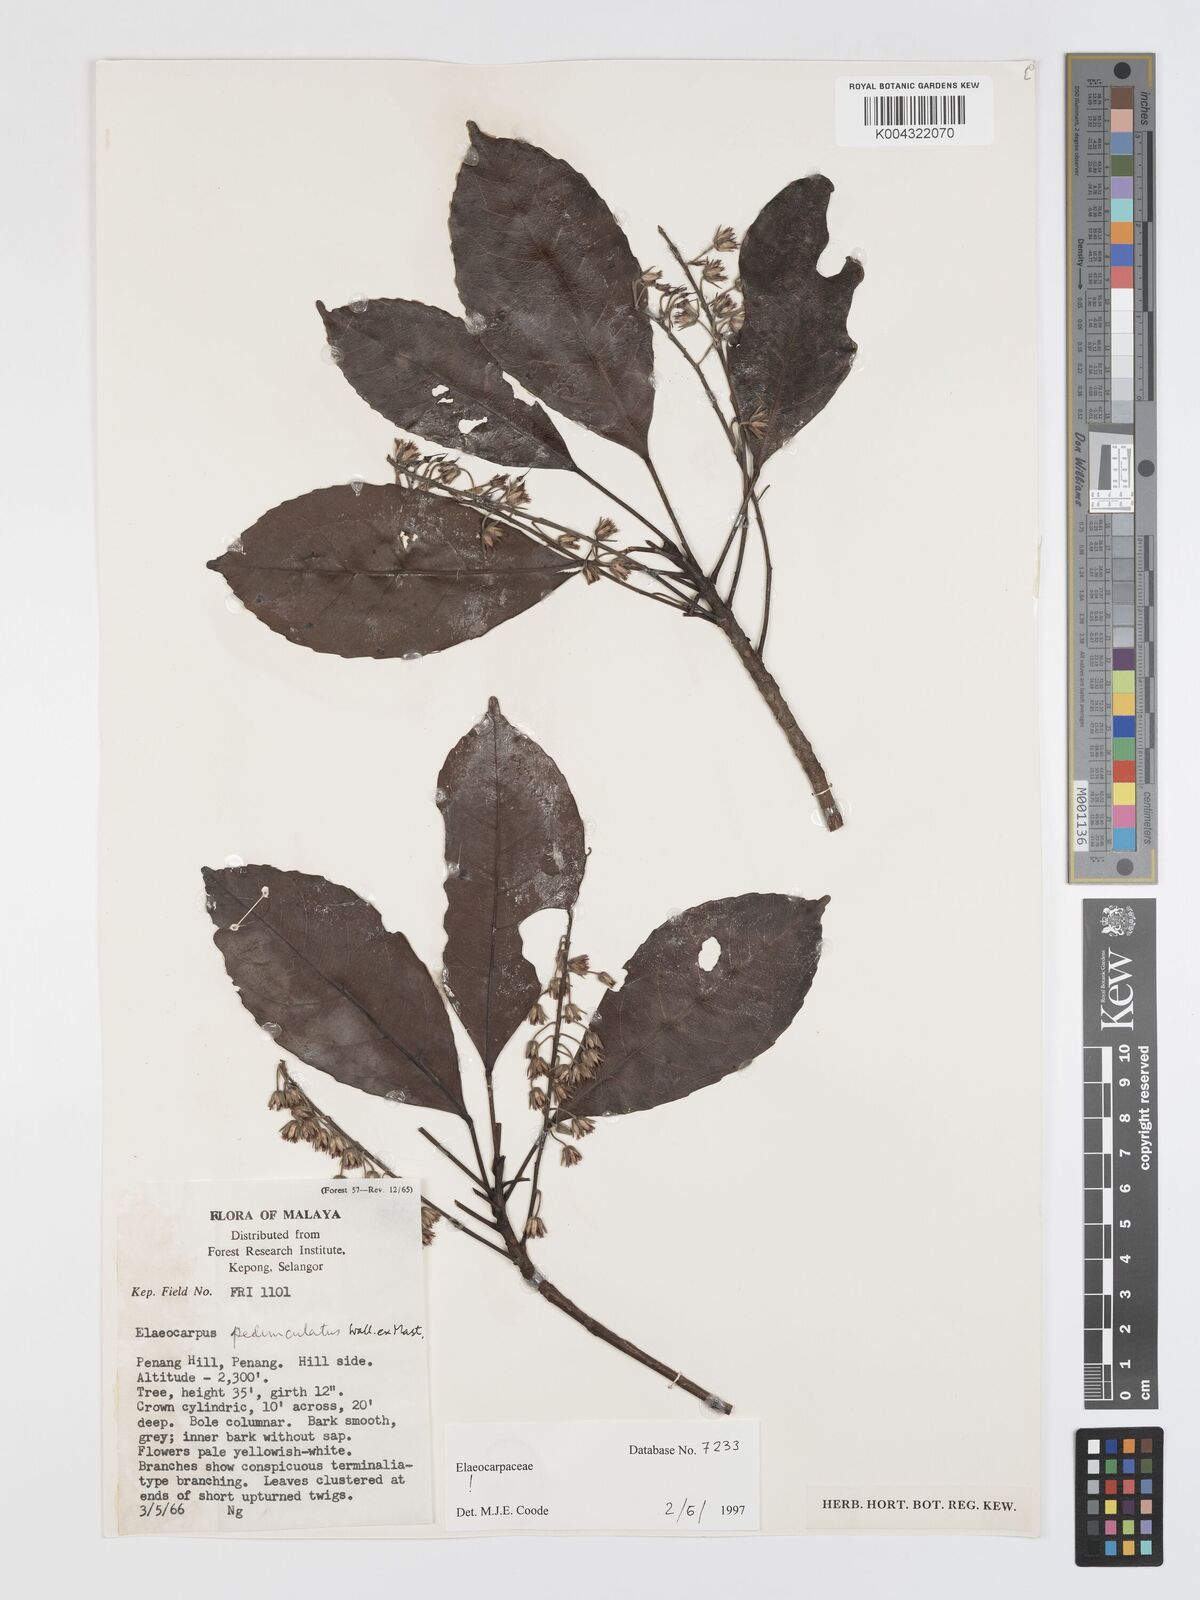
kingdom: Plantae
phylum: Tracheophyta
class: Magnoliopsida
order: Oxalidales
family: Elaeocarpaceae
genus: Elaeocarpus
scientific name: Elaeocarpus pedunculatus
